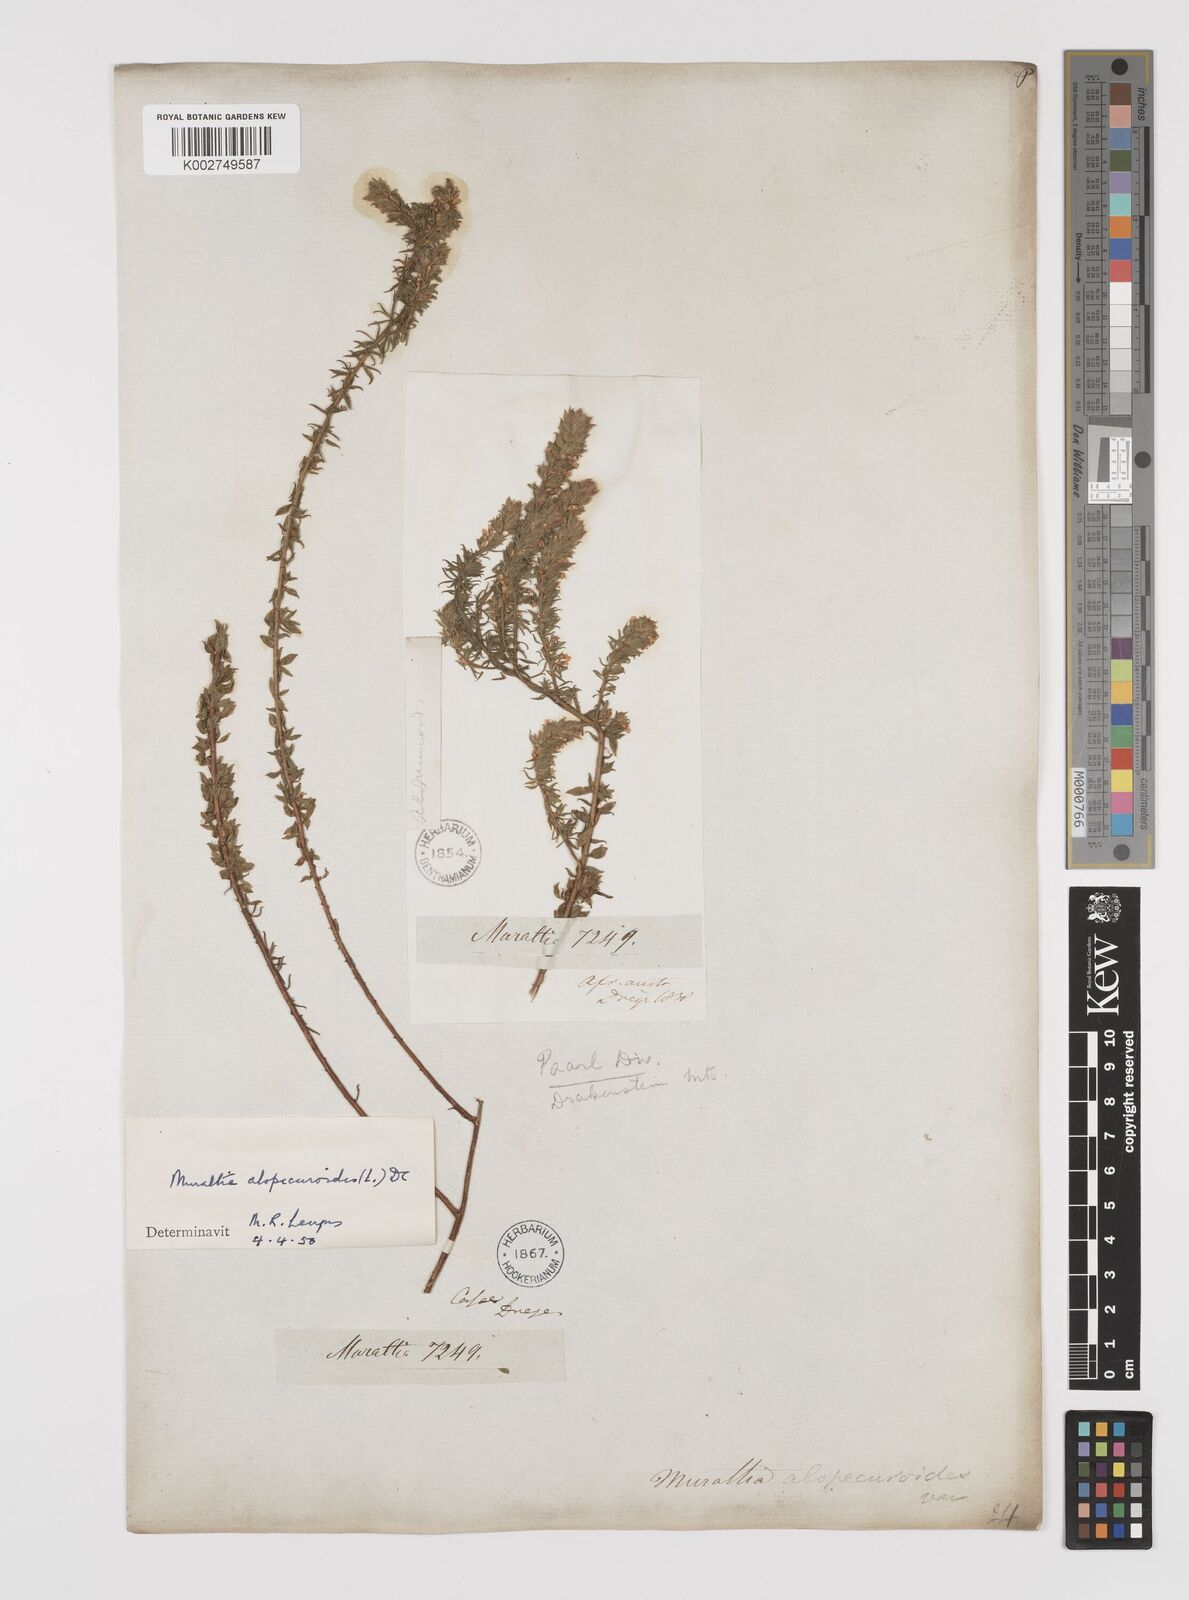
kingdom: Plantae
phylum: Tracheophyta
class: Magnoliopsida
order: Fabales
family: Polygalaceae
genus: Muraltia
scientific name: Muraltia alopecuroides
